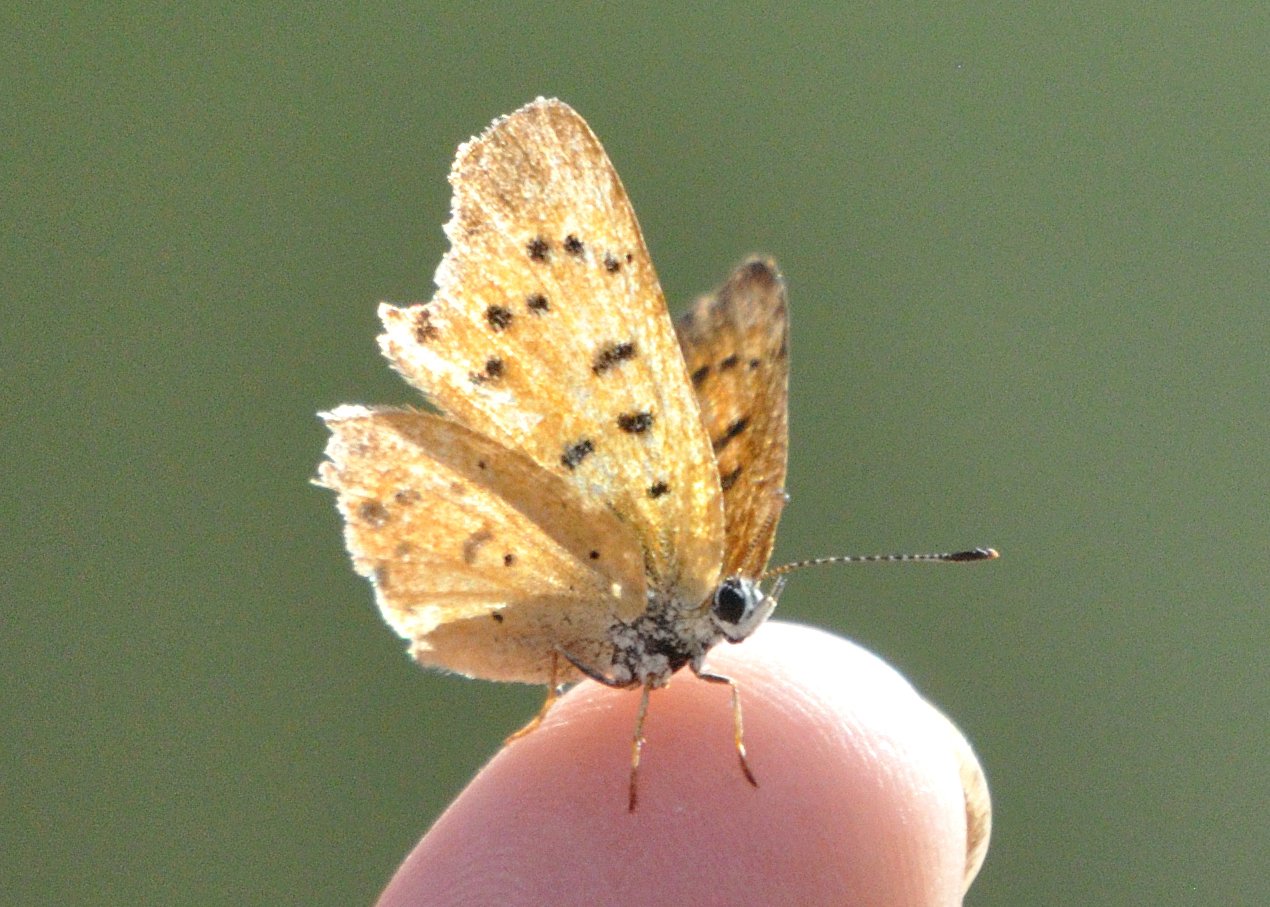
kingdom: Animalia
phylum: Arthropoda
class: Insecta
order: Lepidoptera
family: Sesiidae
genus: Sesia
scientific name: Sesia Lycaena helloides
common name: Purplish Copper
